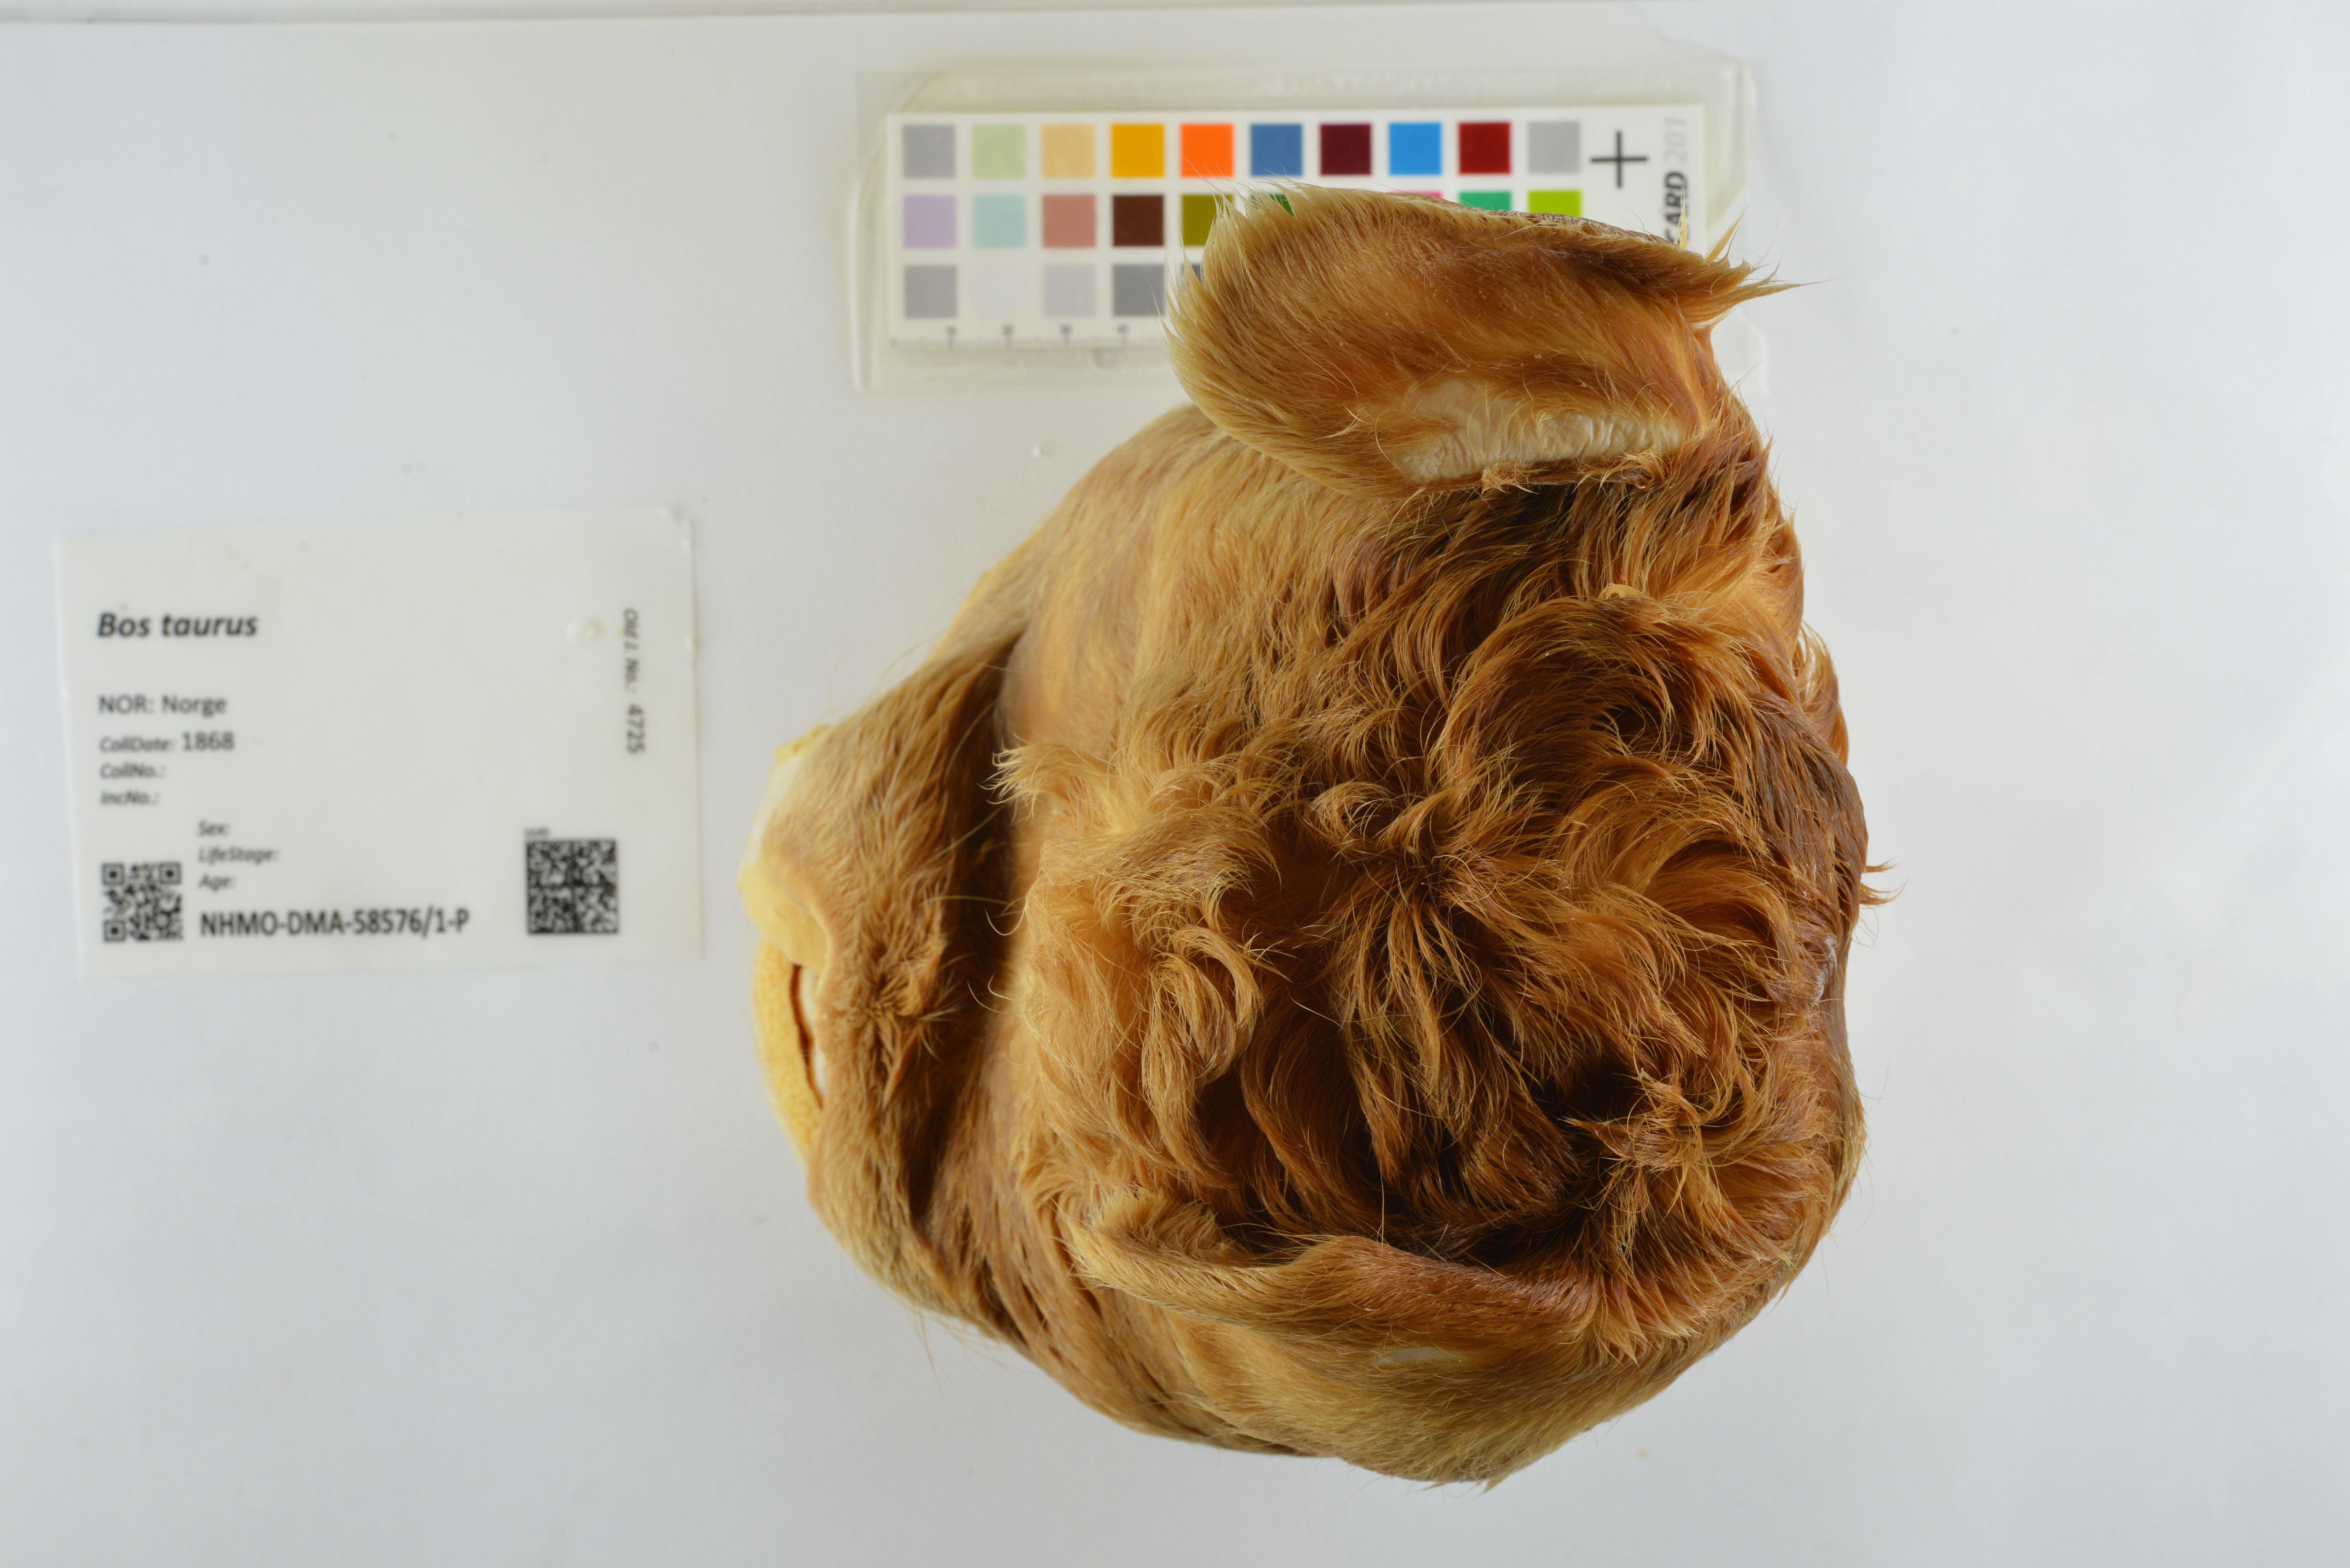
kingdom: Animalia
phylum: Chordata
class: Mammalia
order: Artiodactyla
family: Bovidae
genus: Bos
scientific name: Bos taurus
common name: Domesticated cattle
